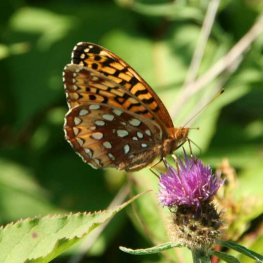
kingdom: Animalia
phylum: Arthropoda
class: Insecta
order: Lepidoptera
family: Nymphalidae
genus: Speyeria
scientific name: Speyeria cybele
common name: Great Spangled Fritillary
